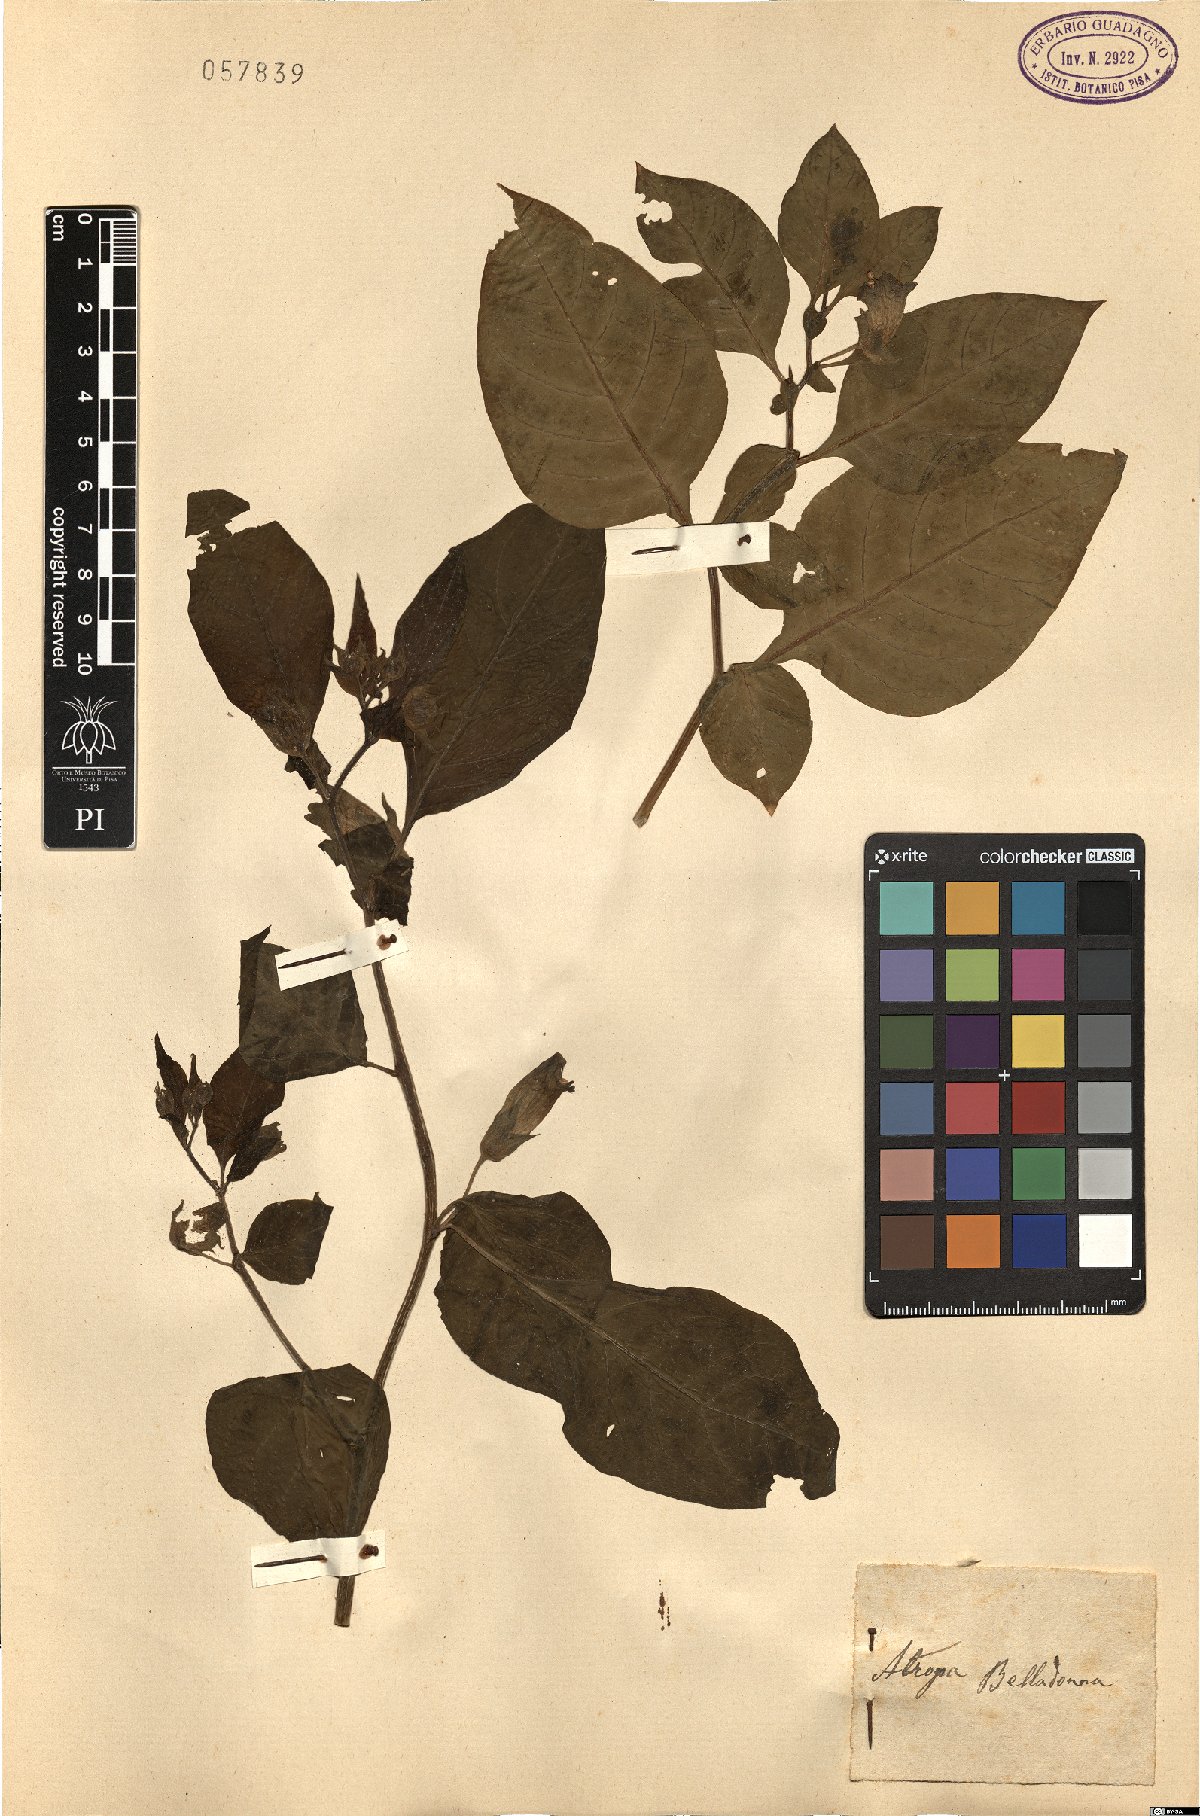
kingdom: Plantae
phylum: Tracheophyta
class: Magnoliopsida
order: Solanales
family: Solanaceae
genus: Atropa
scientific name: Atropa belladonna
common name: Deadly nightshade
